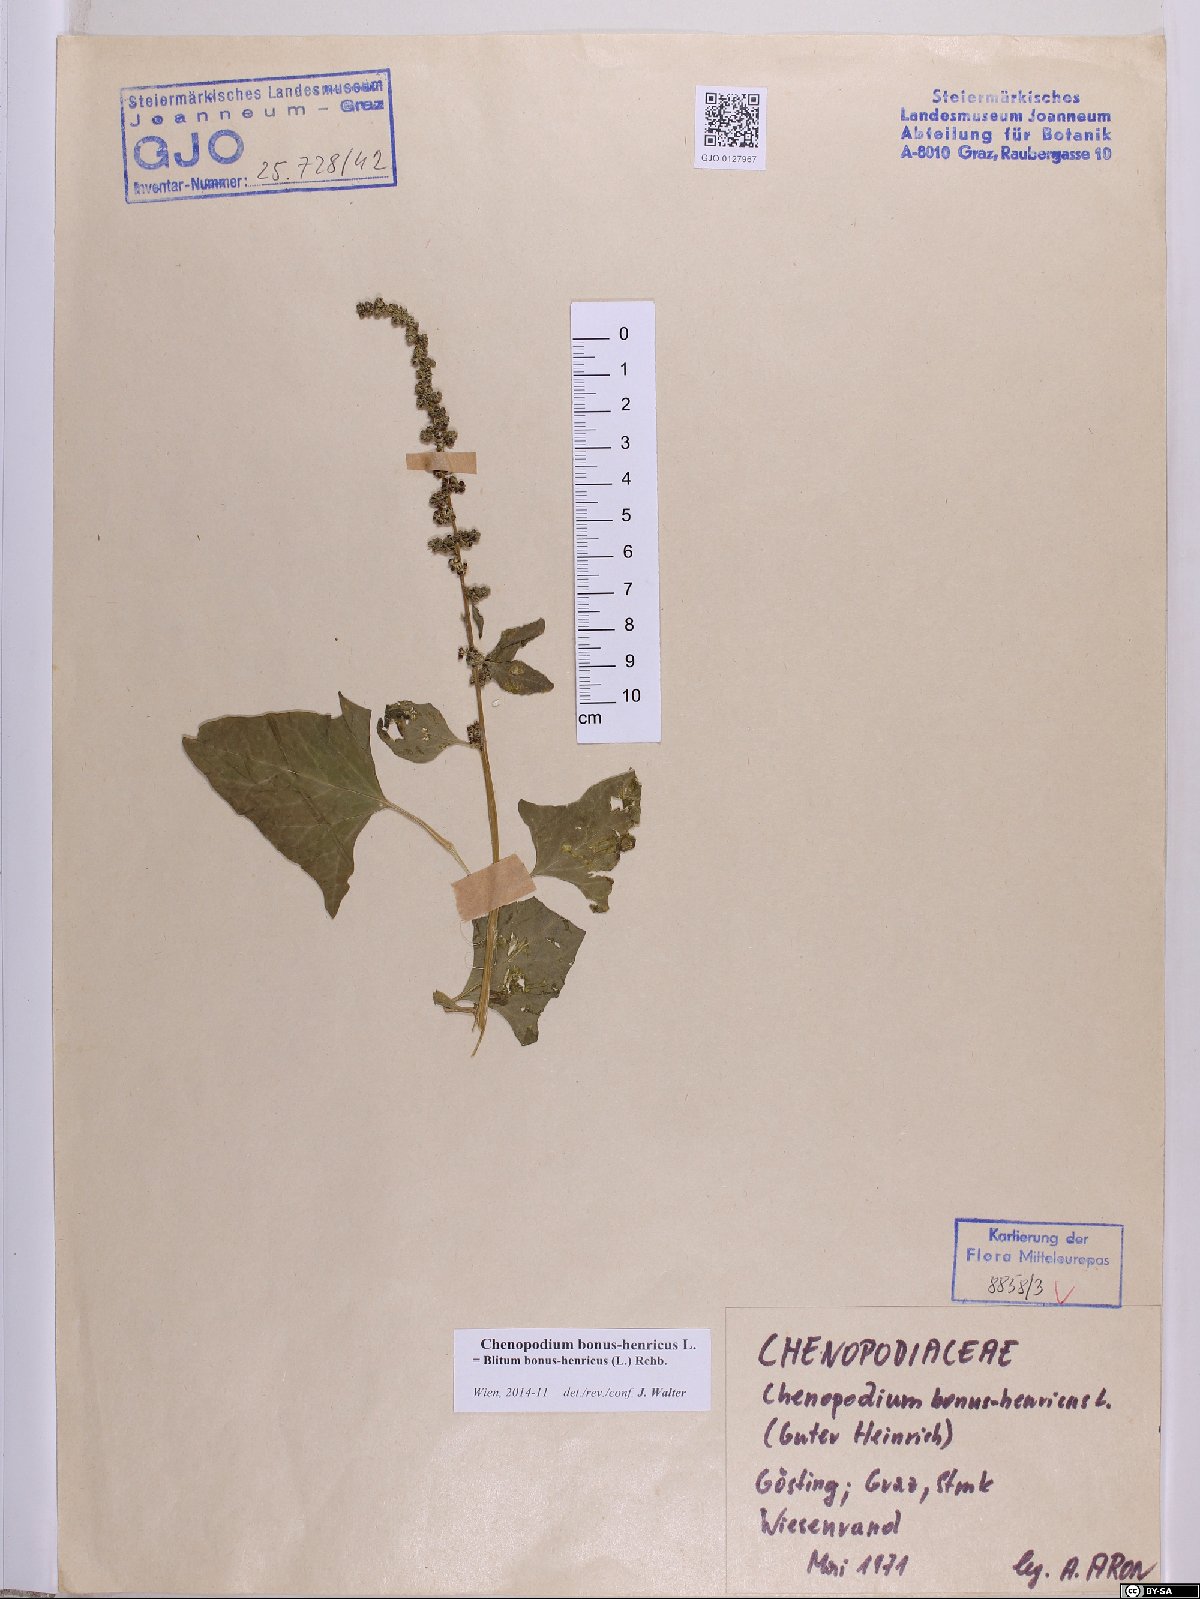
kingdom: Plantae
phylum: Tracheophyta
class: Magnoliopsida
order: Caryophyllales
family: Amaranthaceae
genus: Blitum
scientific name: Blitum bonus-henricus
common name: Good king henry
